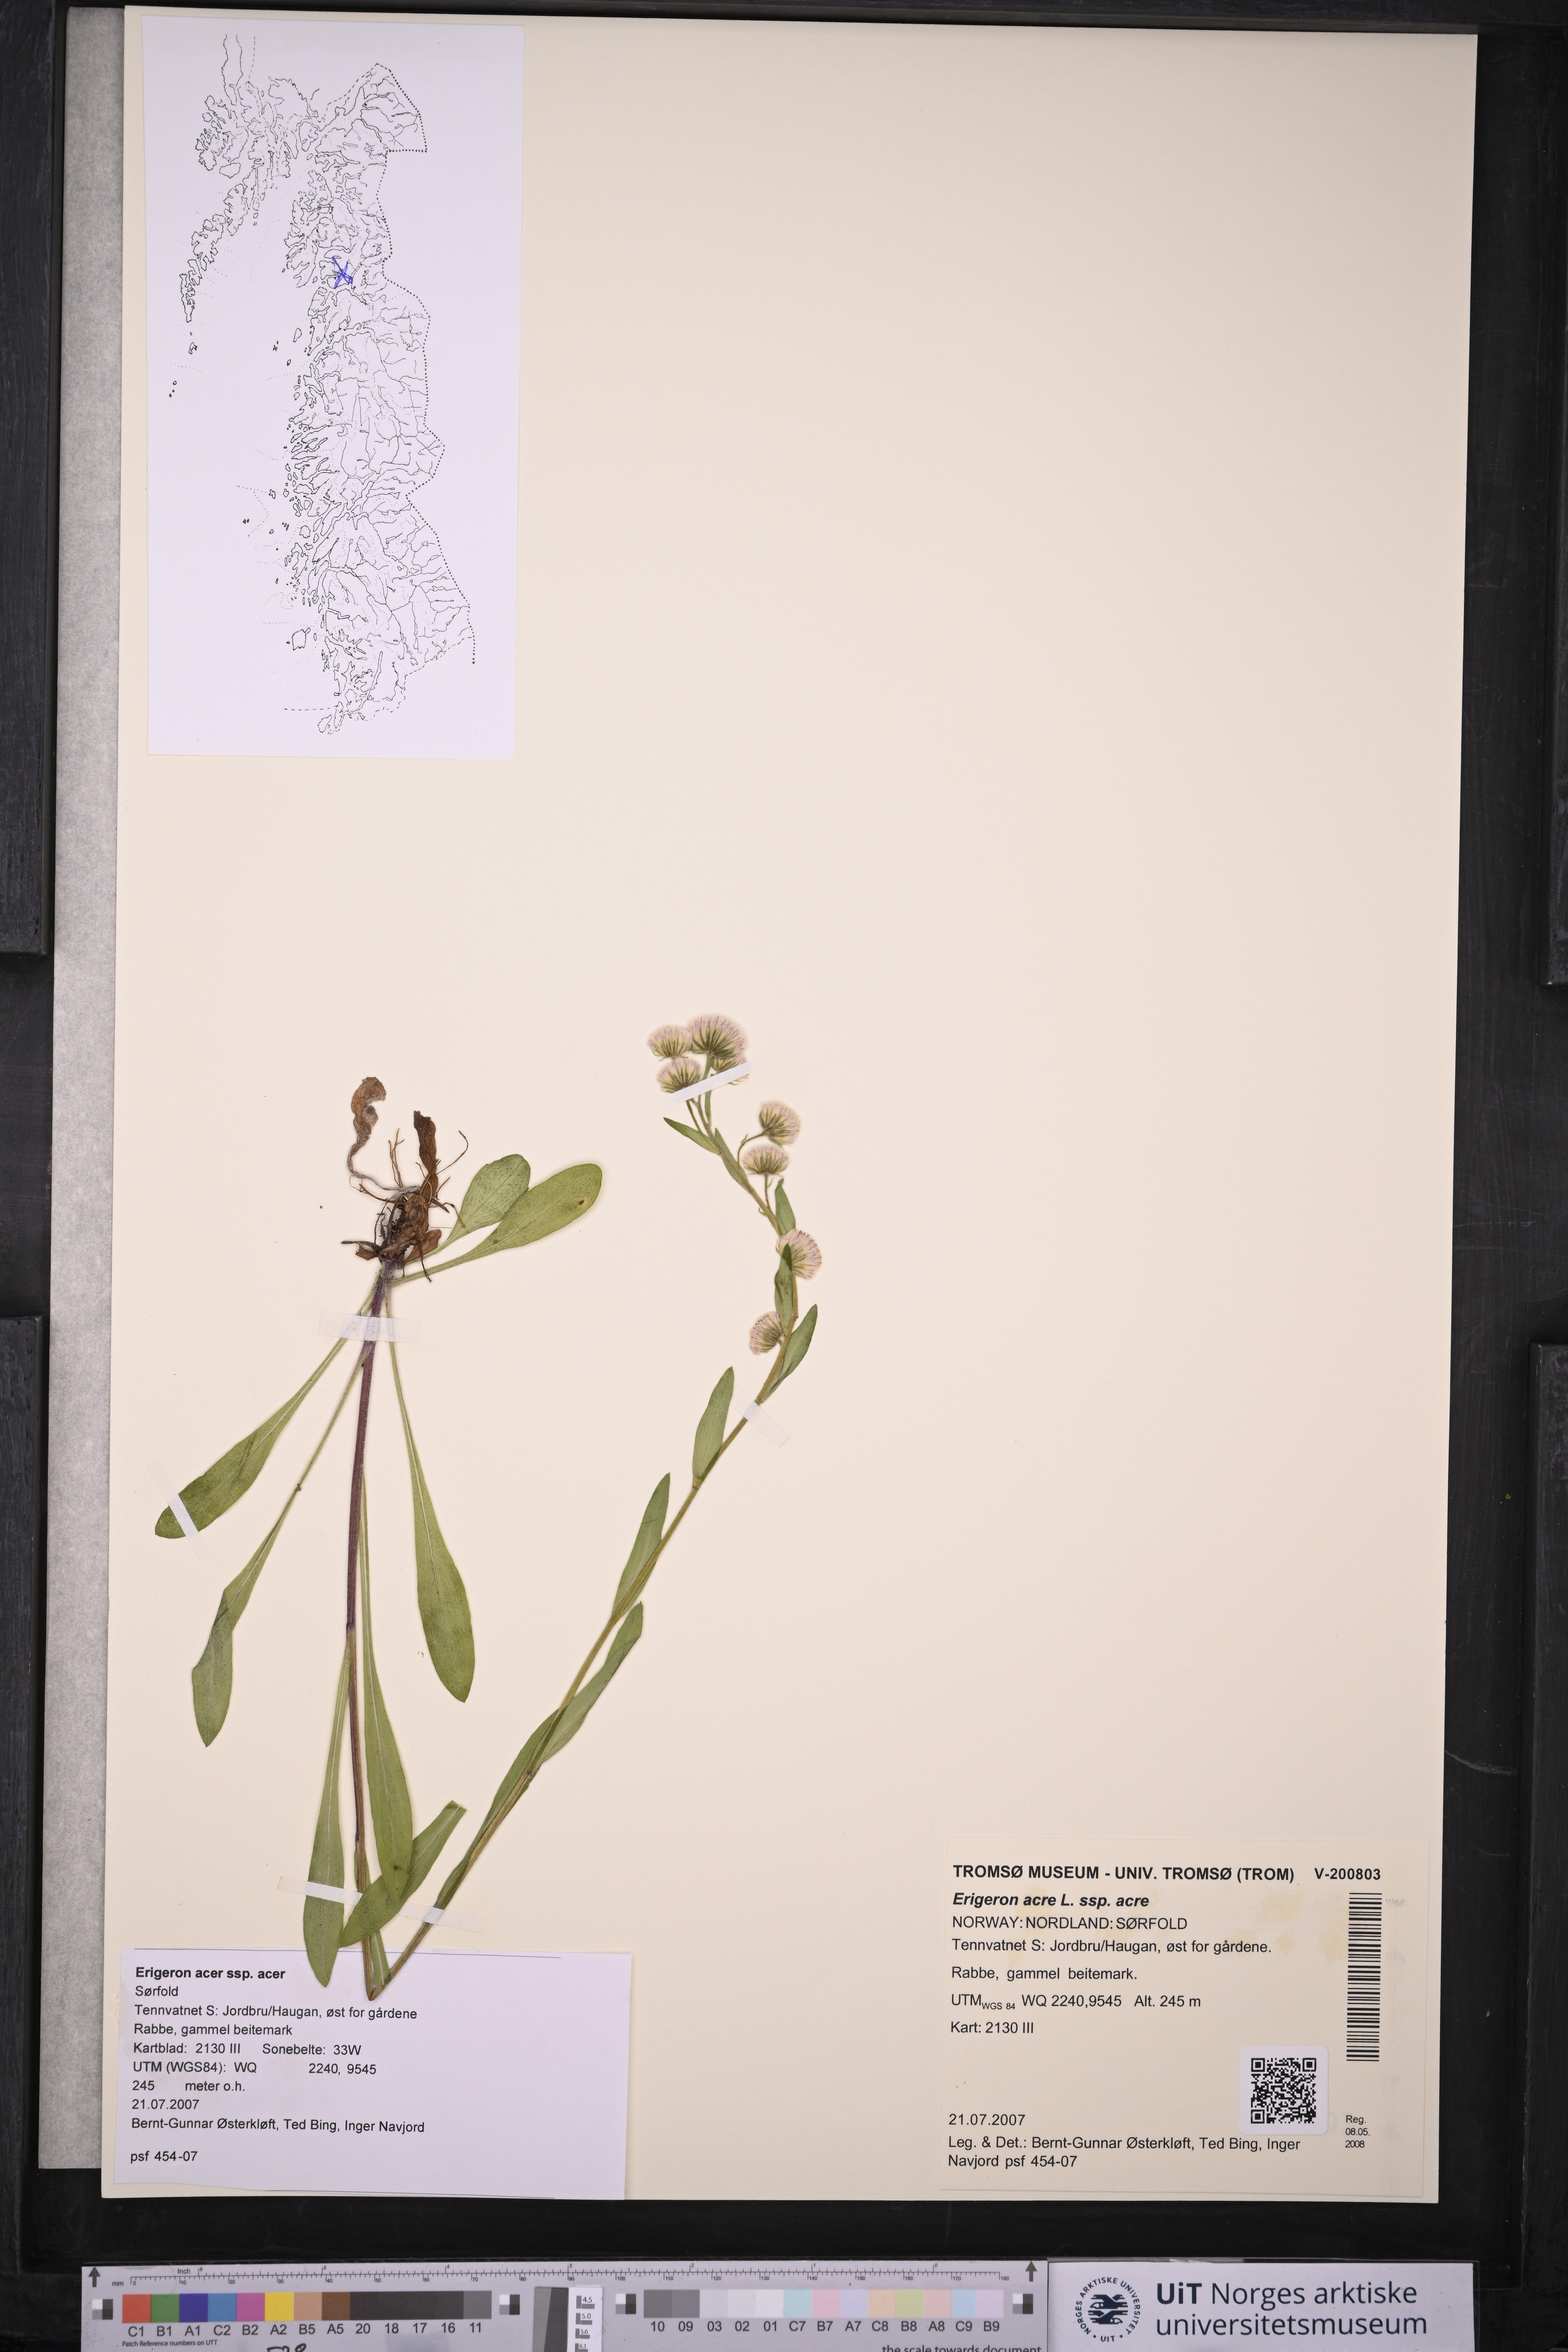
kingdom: Plantae
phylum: Tracheophyta
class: Magnoliopsida
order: Asterales
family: Asteraceae
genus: Erigeron
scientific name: Erigeron acris
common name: Blue fleabane
